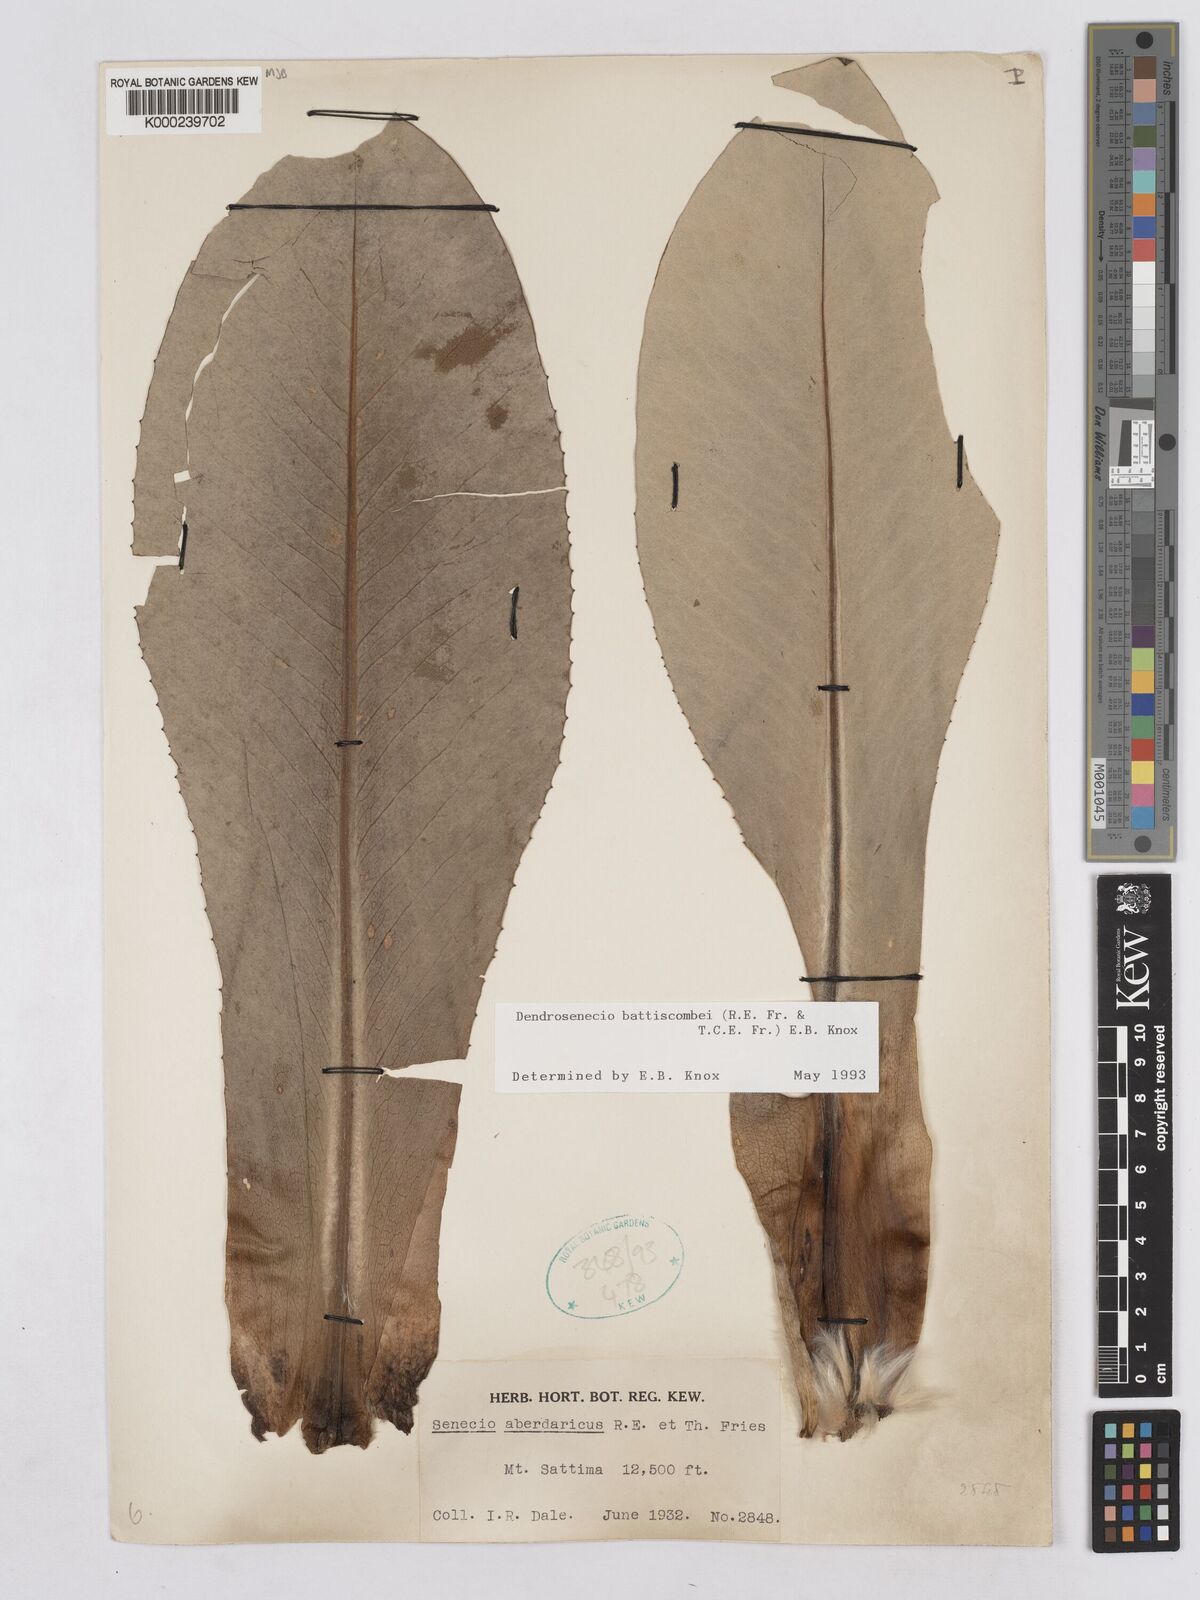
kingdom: Plantae
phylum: Tracheophyta
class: Magnoliopsida
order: Asterales
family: Asteraceae
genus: Dendrosenecio
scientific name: Dendrosenecio battiscombei
